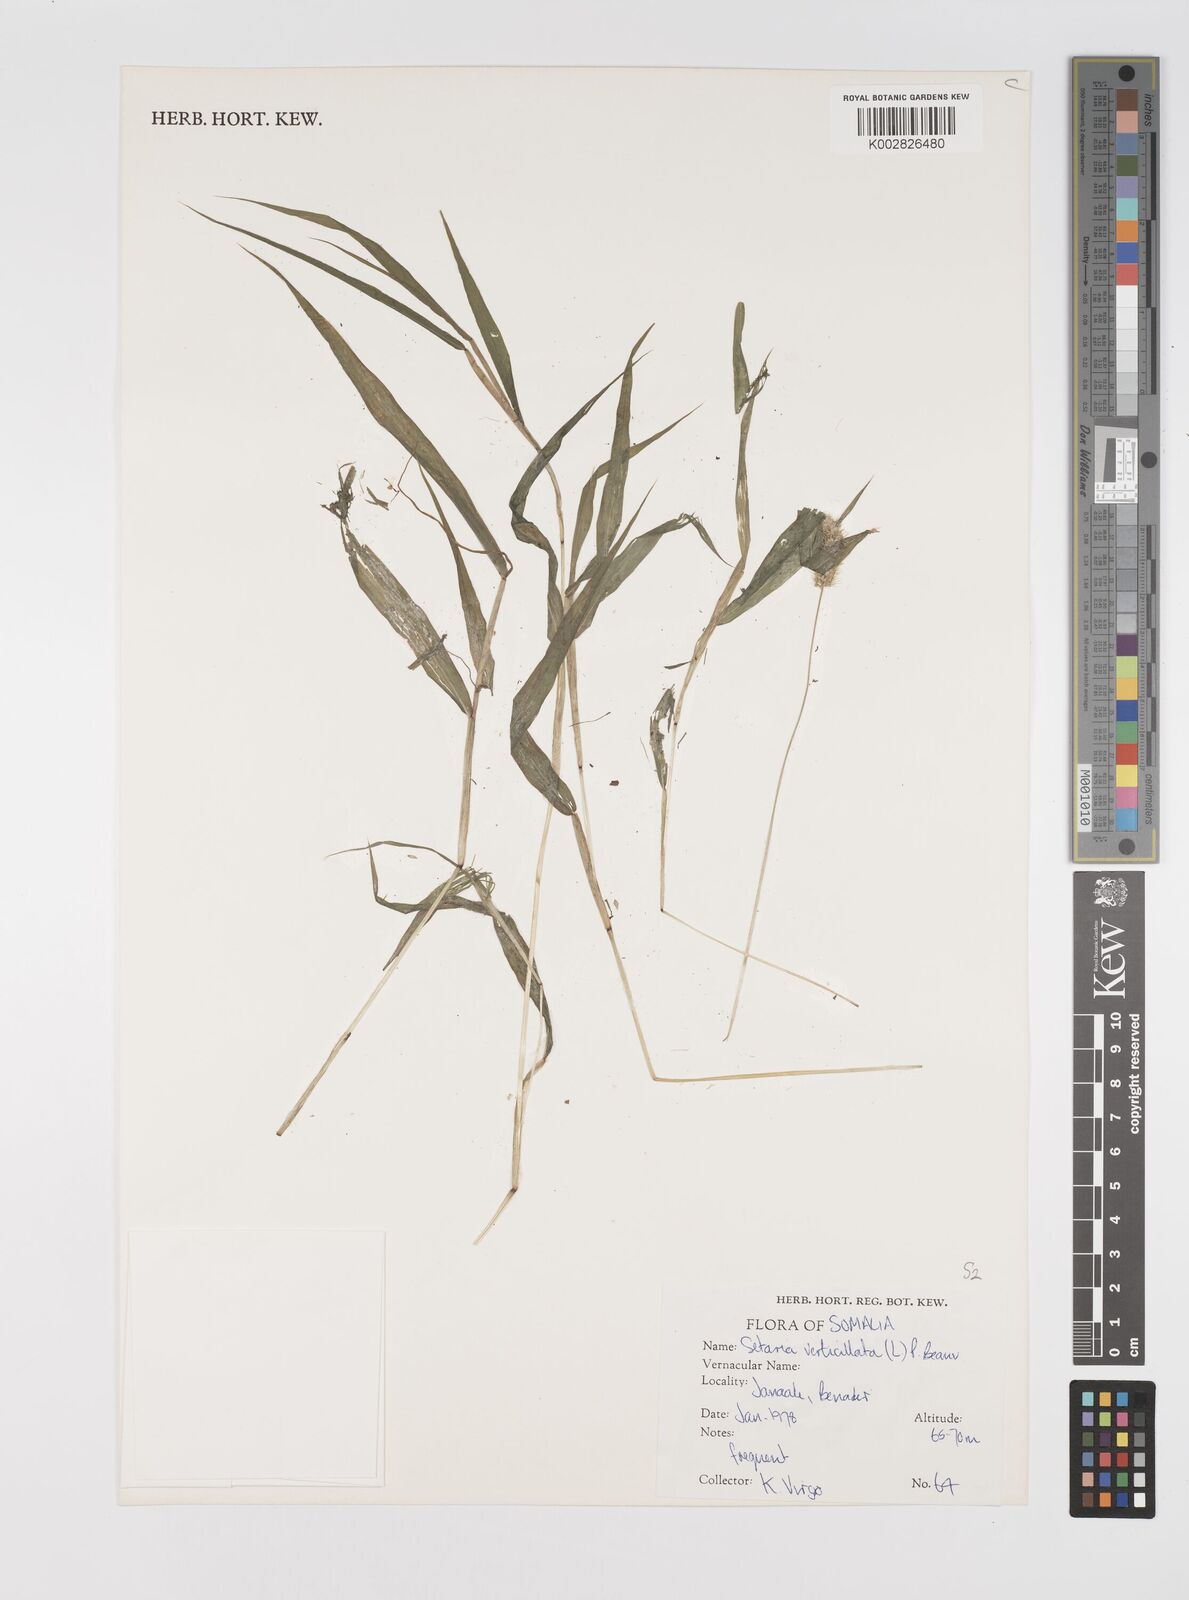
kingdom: Plantae
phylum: Tracheophyta
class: Liliopsida
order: Poales
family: Poaceae
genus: Setaria
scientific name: Setaria verticillata
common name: Hooked bristlegrass
